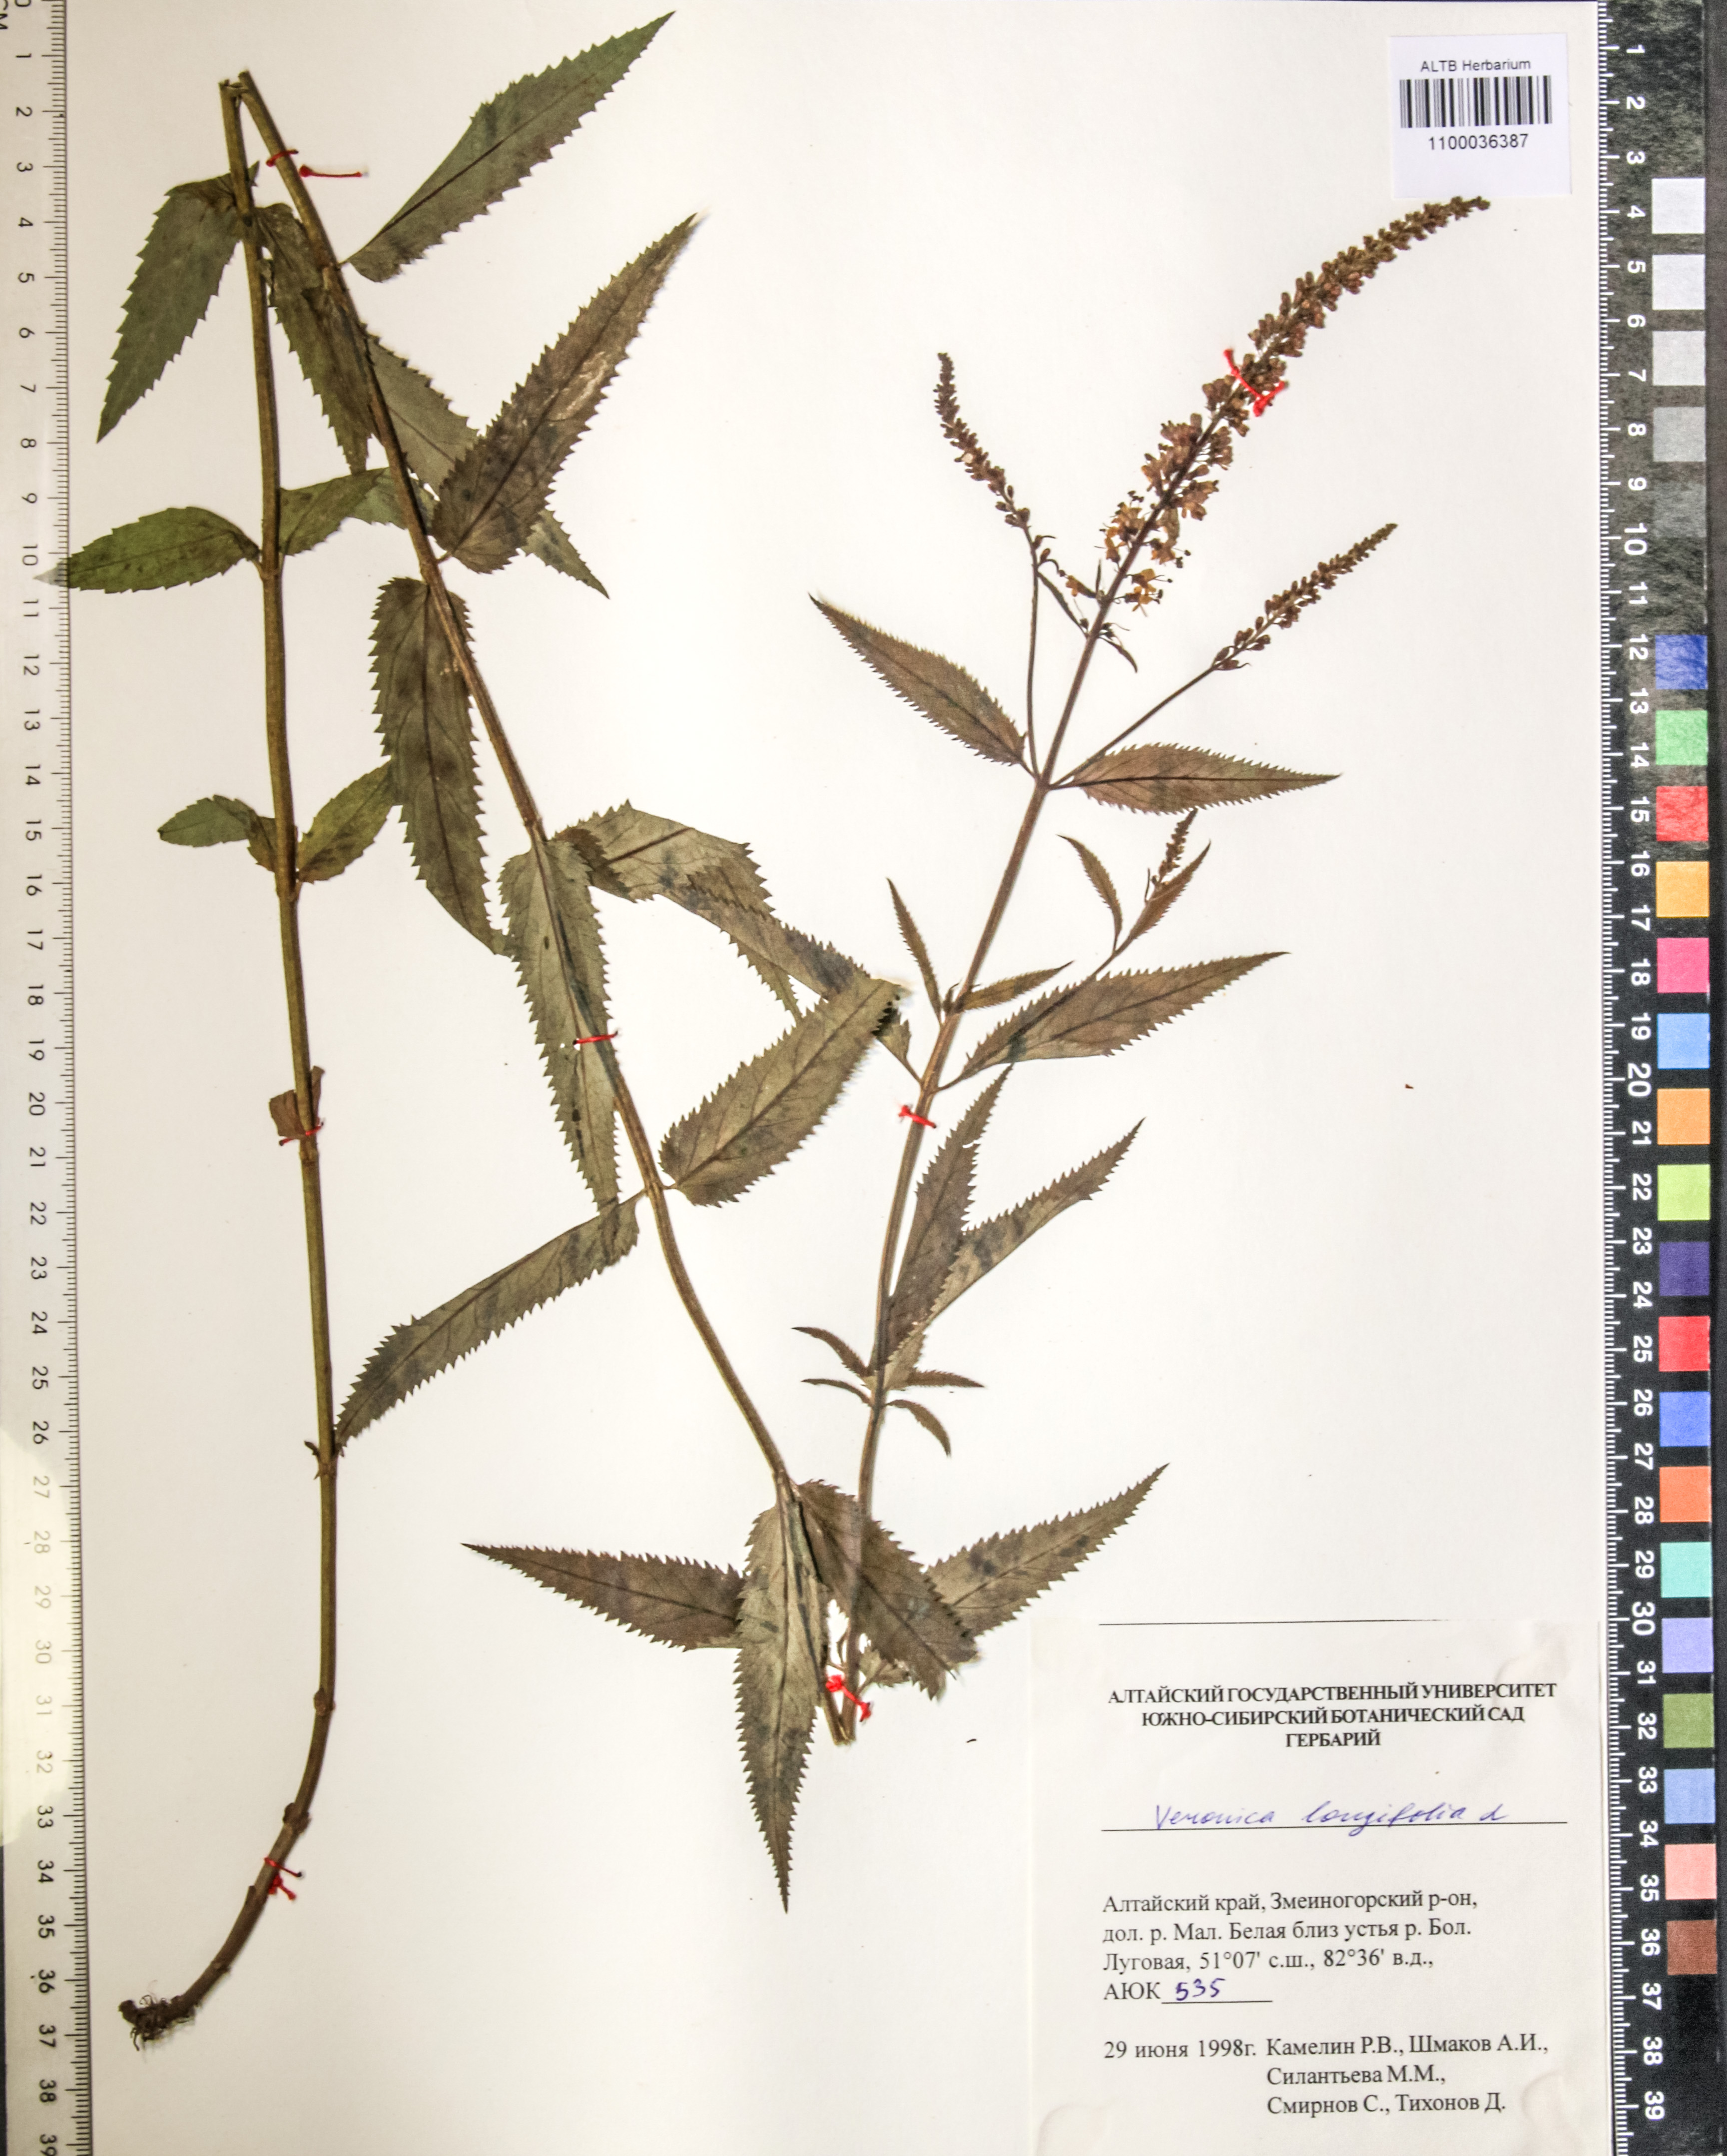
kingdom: Plantae
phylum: Tracheophyta
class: Magnoliopsida
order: Lamiales
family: Plantaginaceae
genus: Veronica
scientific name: Veronica longifolia
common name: Garden speedwell
